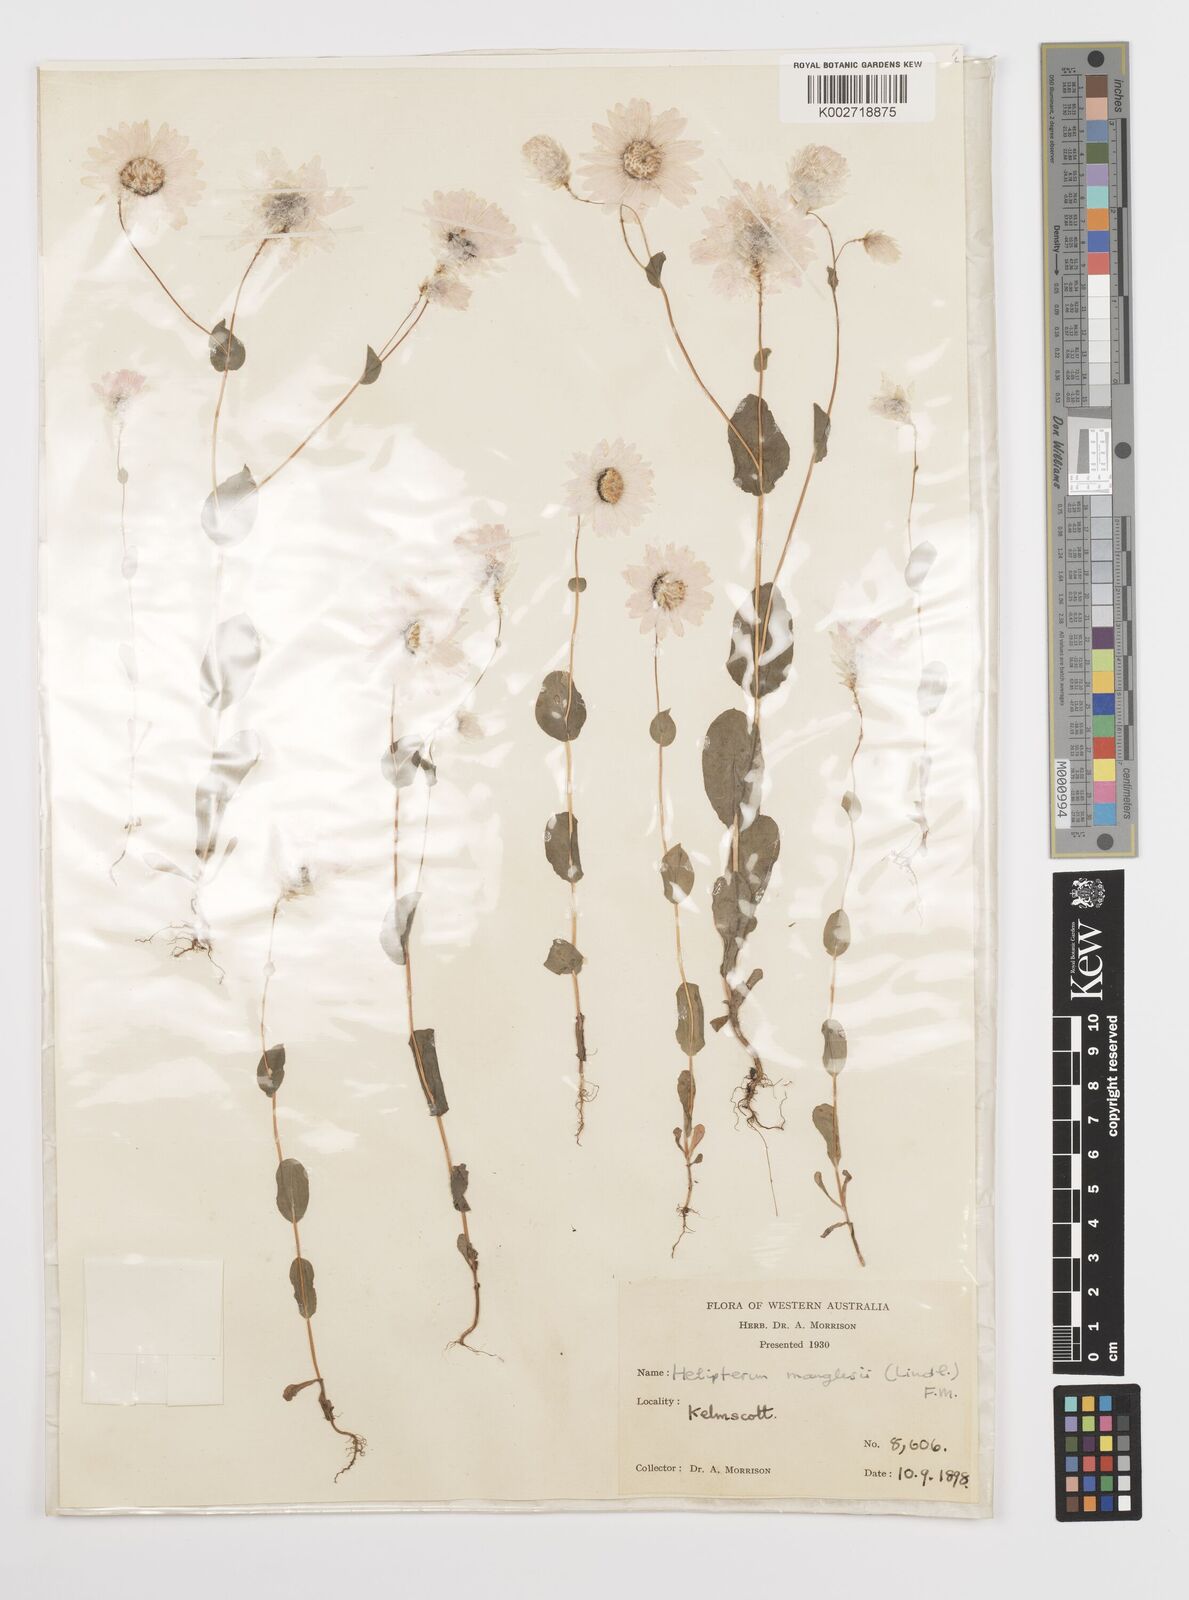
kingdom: Plantae
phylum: Tracheophyta
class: Magnoliopsida
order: Asterales
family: Asteraceae
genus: Rhodanthe
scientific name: Rhodanthe manglesii
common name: Pink sunray
